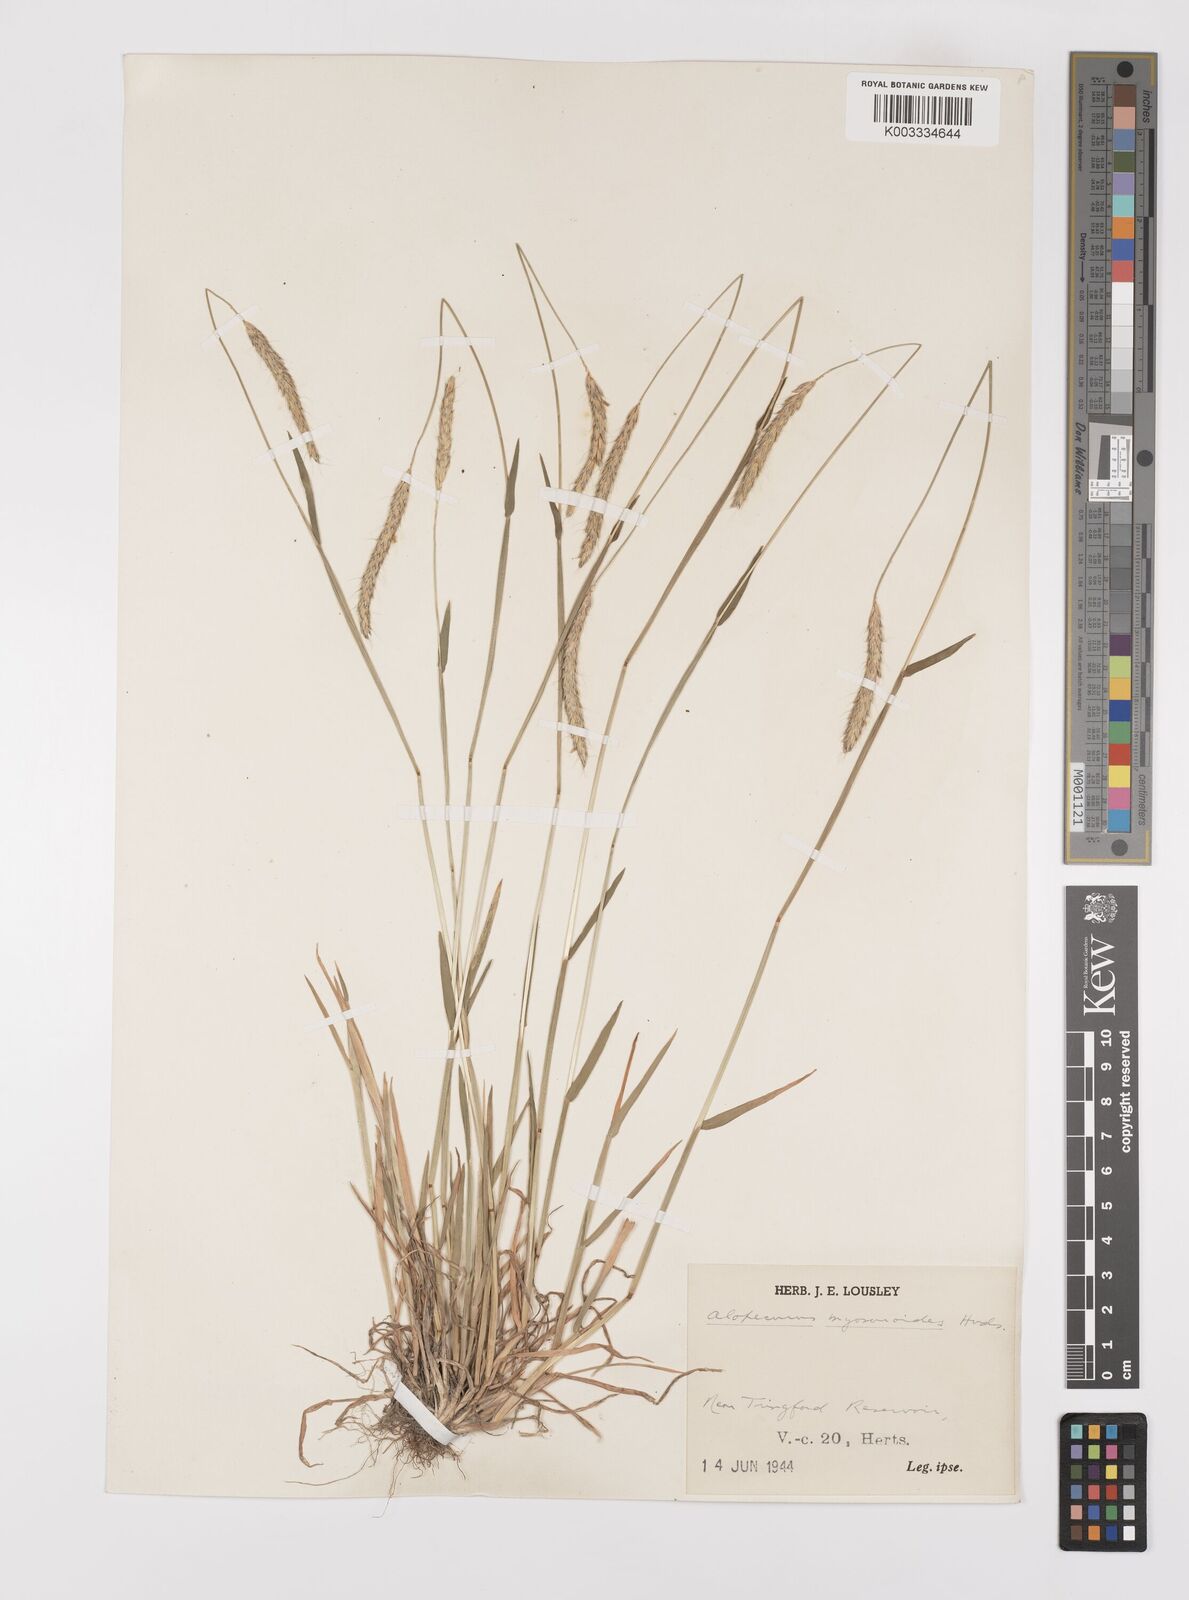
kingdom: Plantae
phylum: Tracheophyta
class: Liliopsida
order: Poales
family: Poaceae
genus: Alopecurus
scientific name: Alopecurus myosuroides
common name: Black-grass
